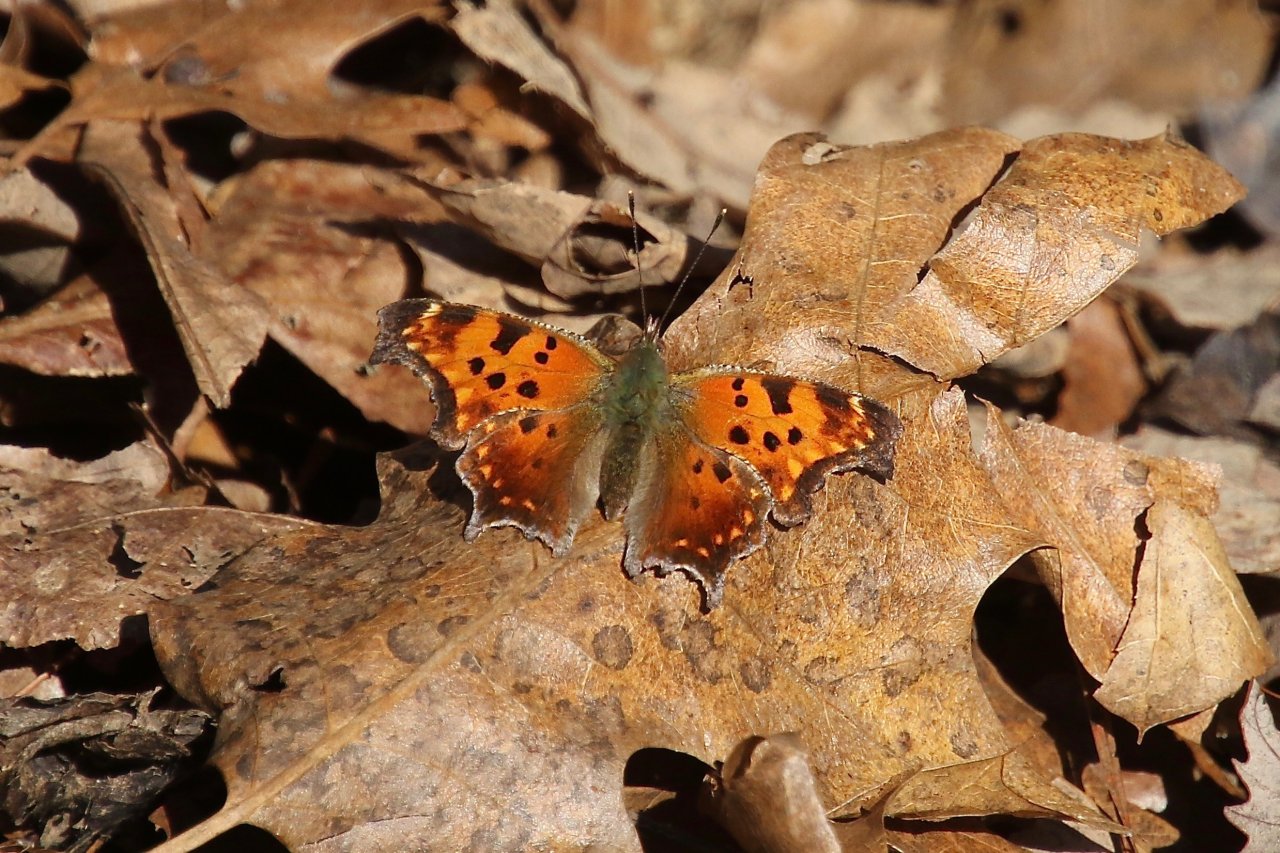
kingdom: Animalia
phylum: Arthropoda
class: Insecta
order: Lepidoptera
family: Nymphalidae
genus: Polygonia
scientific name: Polygonia comma
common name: Eastern Comma
